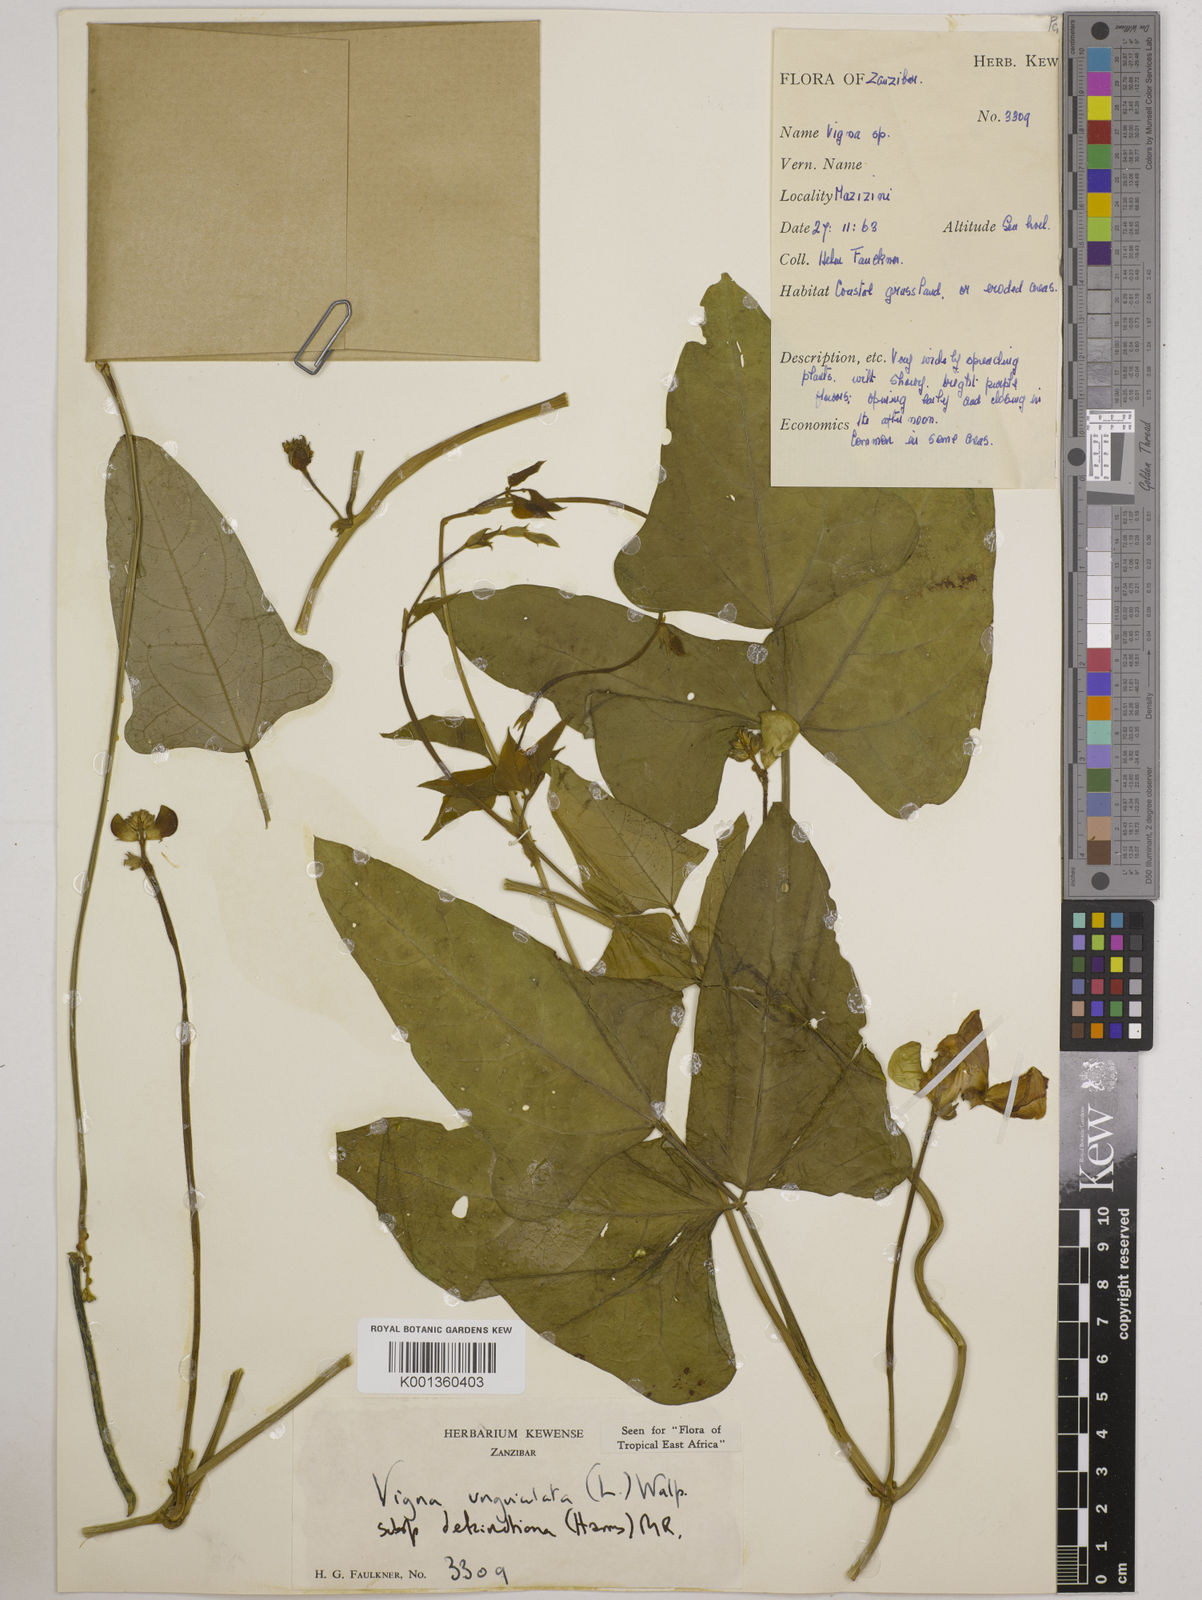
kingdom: Plantae
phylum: Tracheophyta
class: Magnoliopsida
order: Fabales
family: Fabaceae
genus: Vigna
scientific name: Vigna
